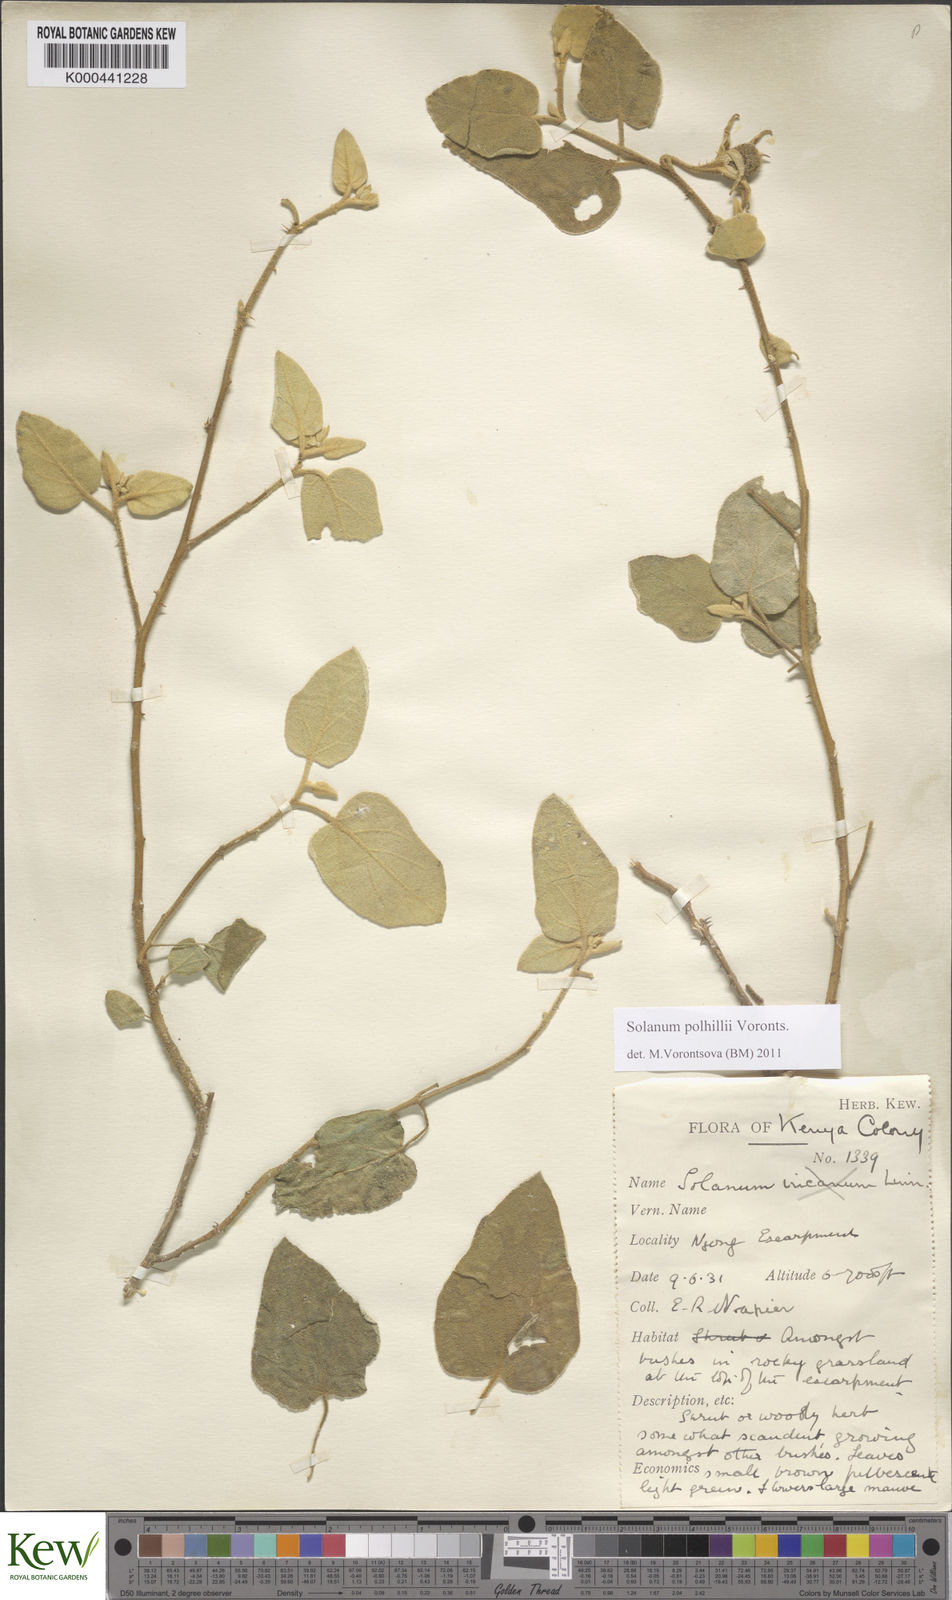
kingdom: Plantae
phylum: Tracheophyta
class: Magnoliopsida
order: Solanales
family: Solanaceae
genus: Solanum
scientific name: Solanum polhillii
